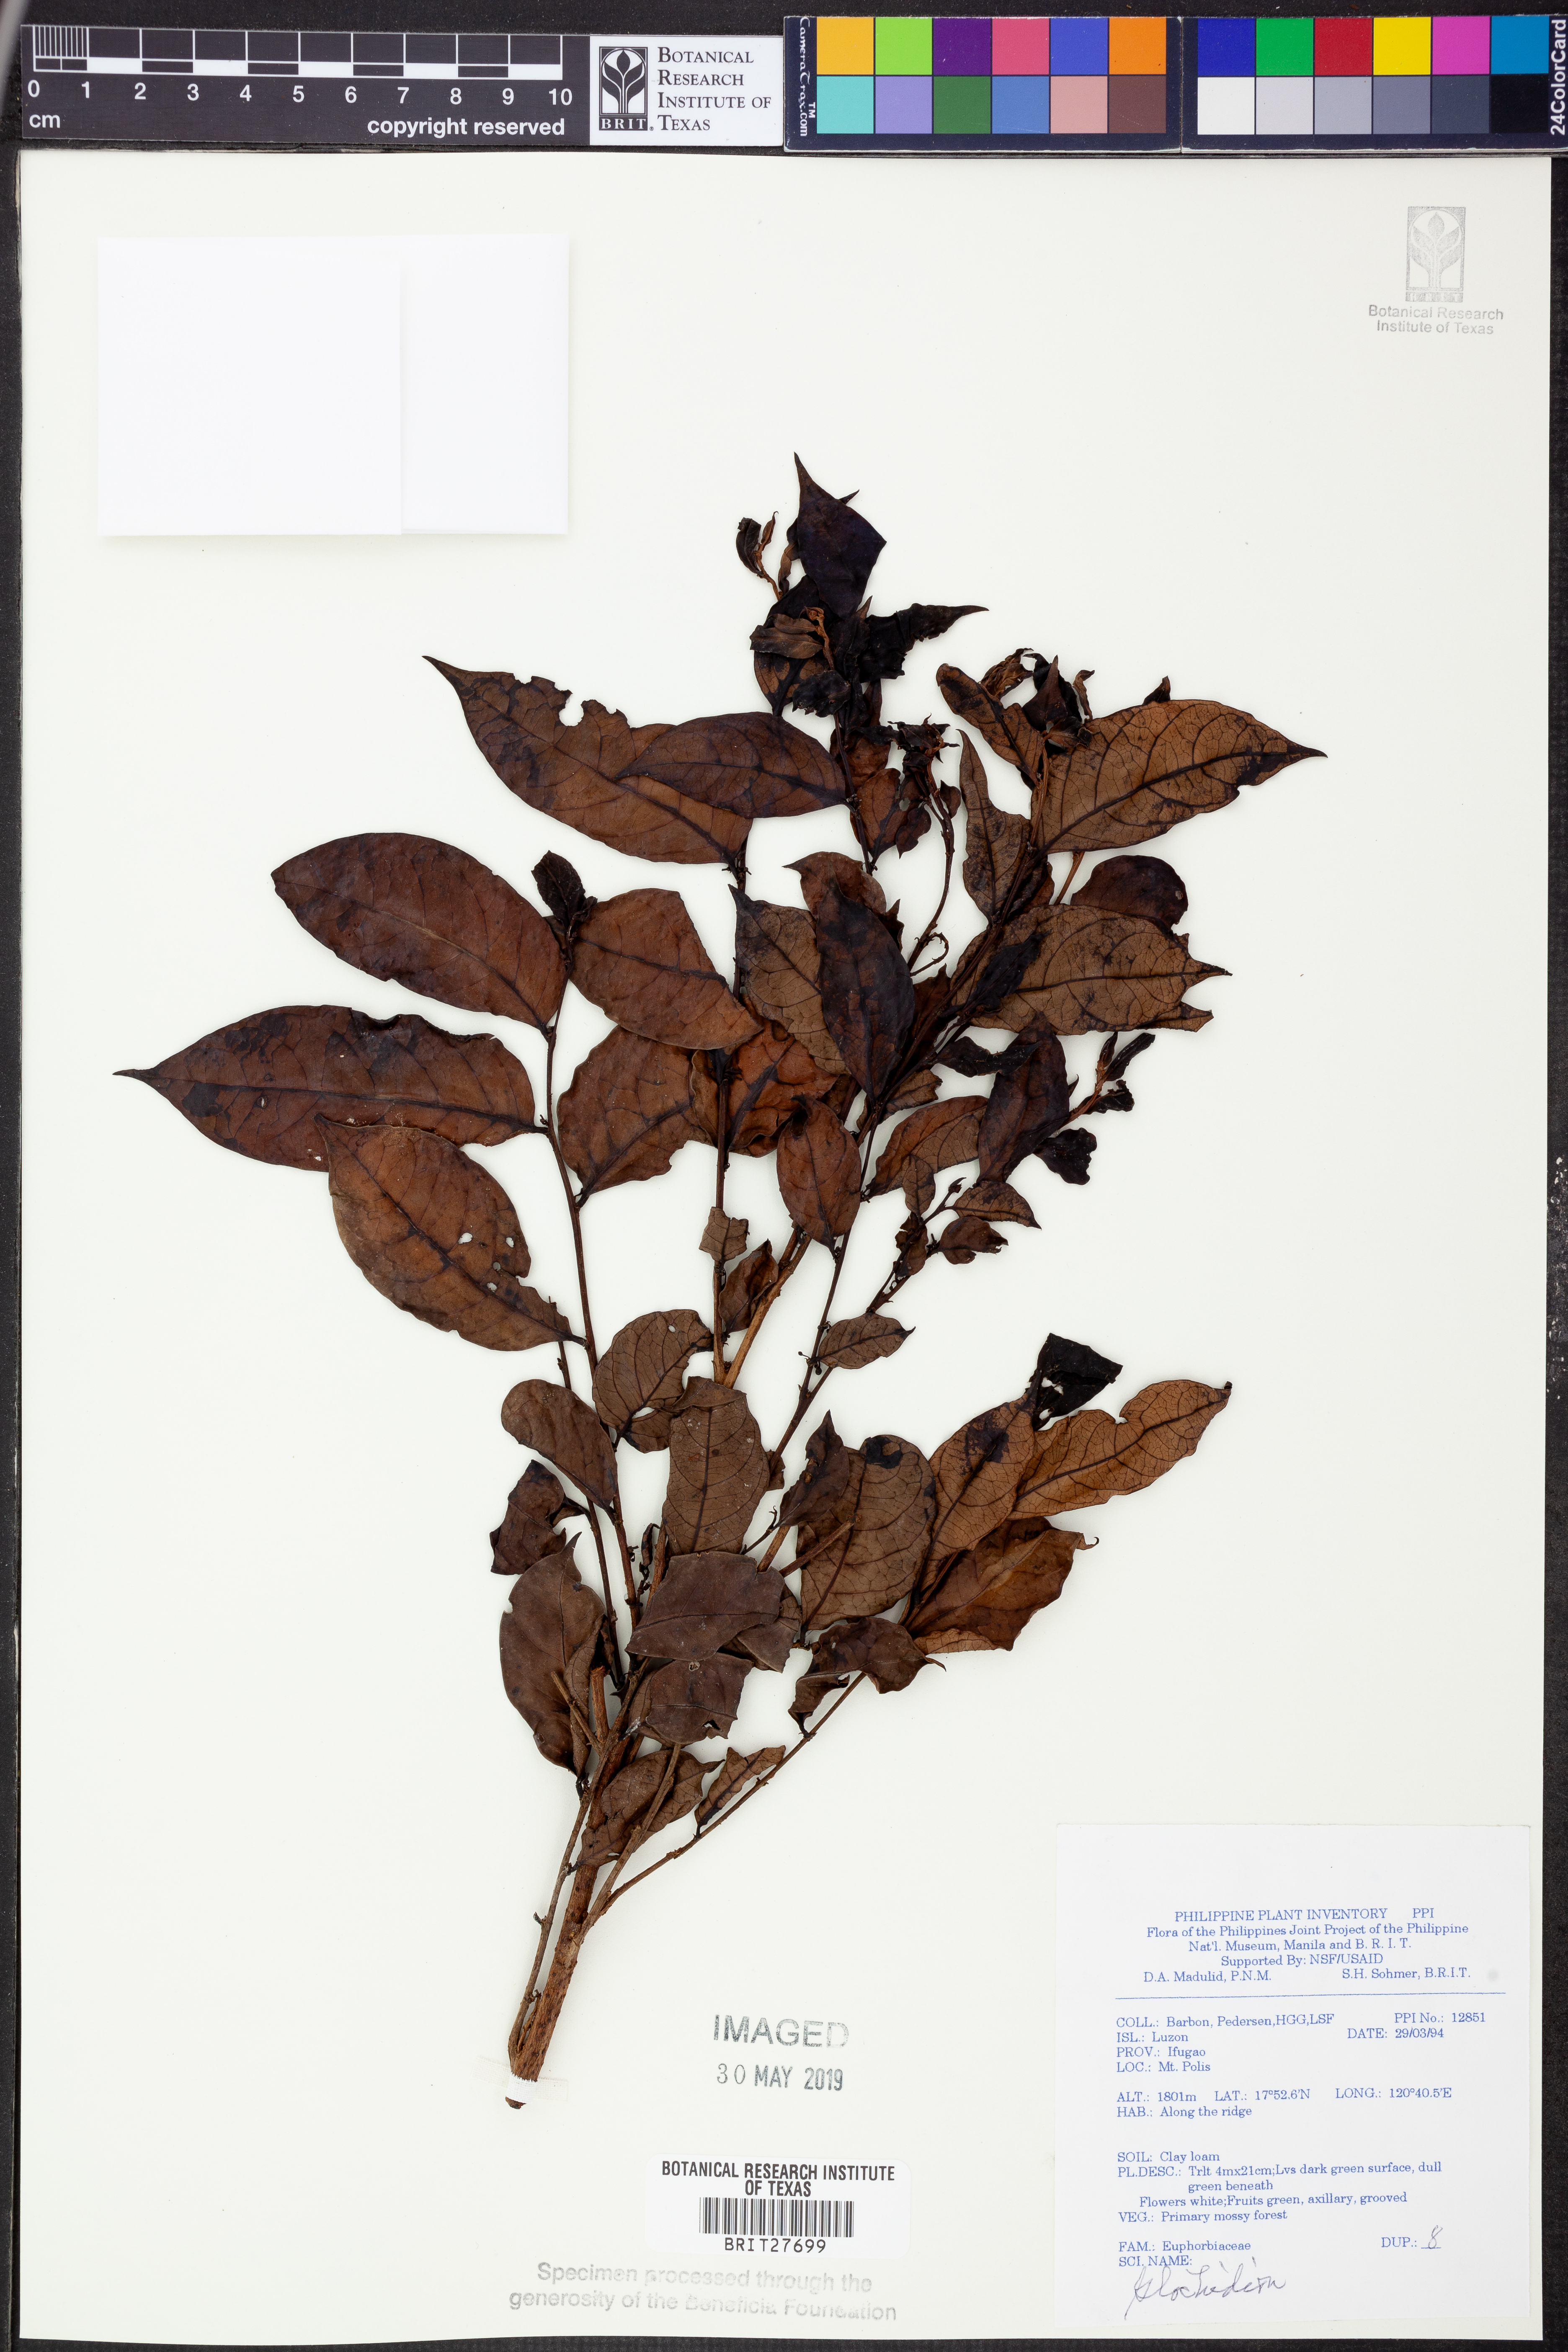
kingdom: Plantae
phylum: Tracheophyta
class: Magnoliopsida
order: Malpighiales
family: Phyllanthaceae
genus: Glochidion
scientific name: Glochidion
